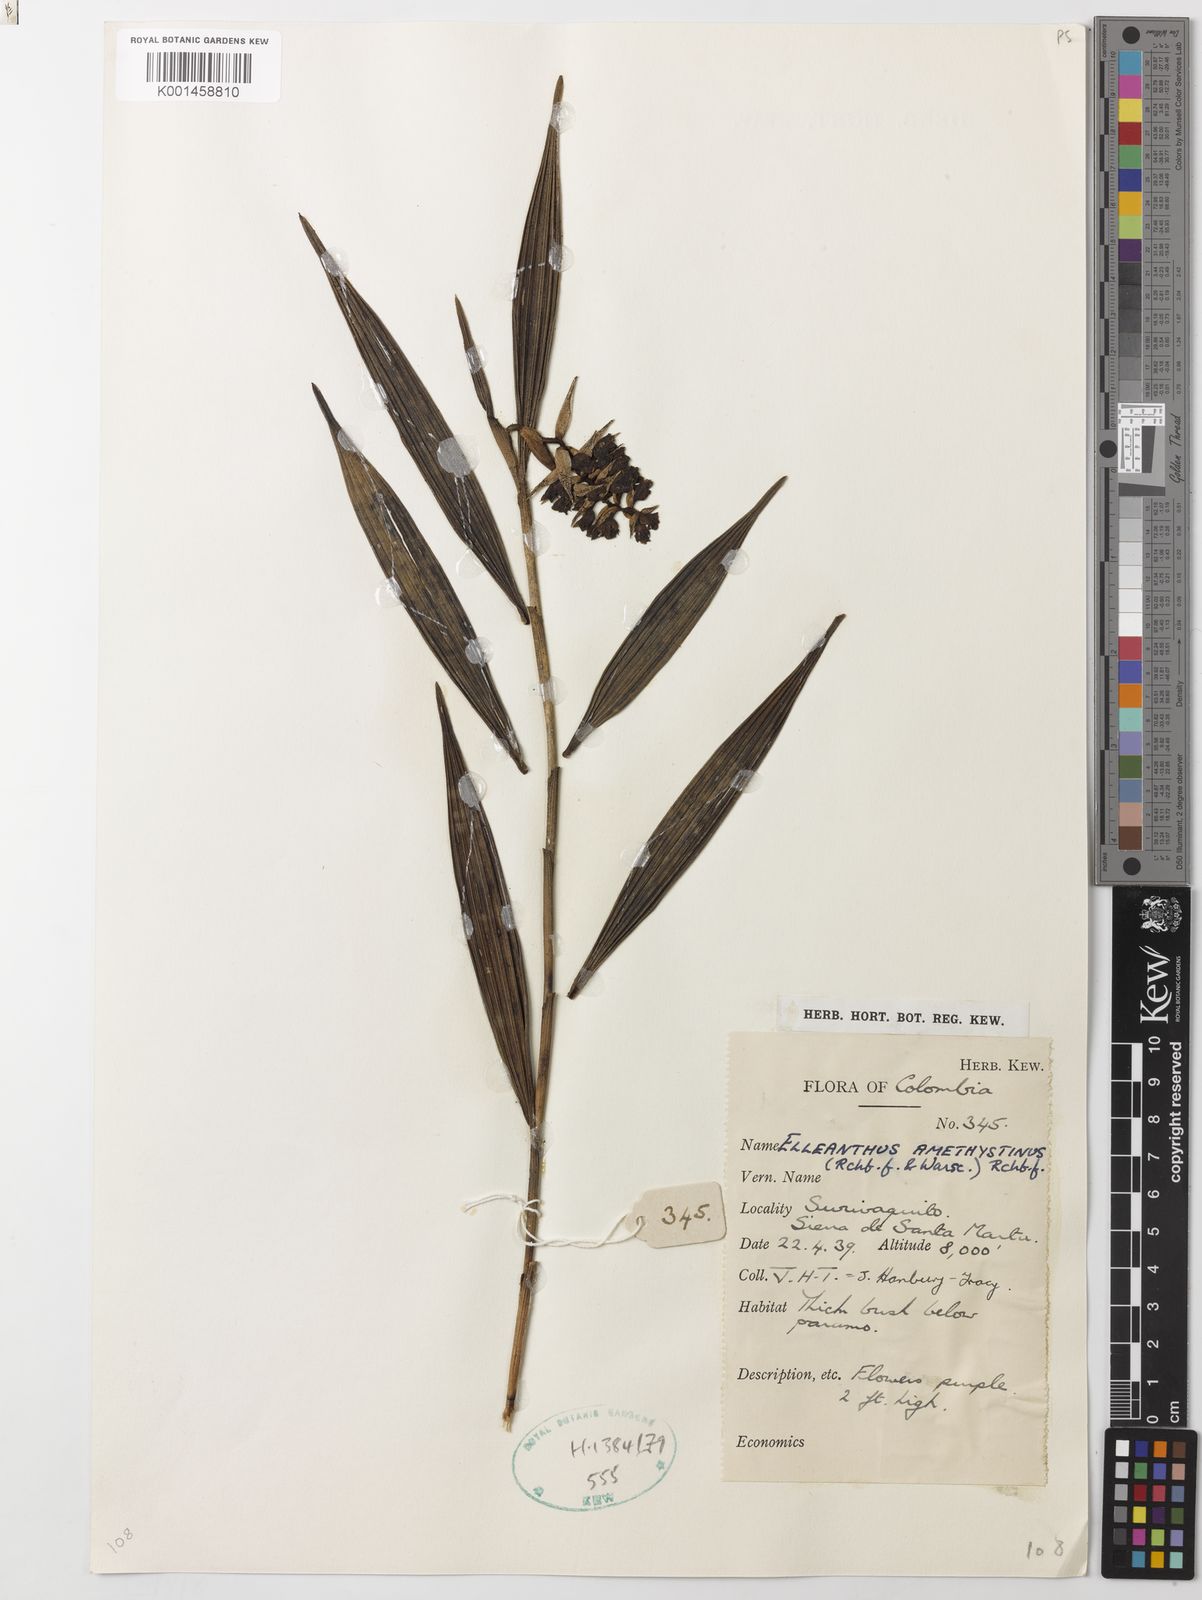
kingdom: Plantae
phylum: Tracheophyta
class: Liliopsida
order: Asparagales
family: Orchidaceae
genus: Elleanthus
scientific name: Elleanthus amethystinoides
